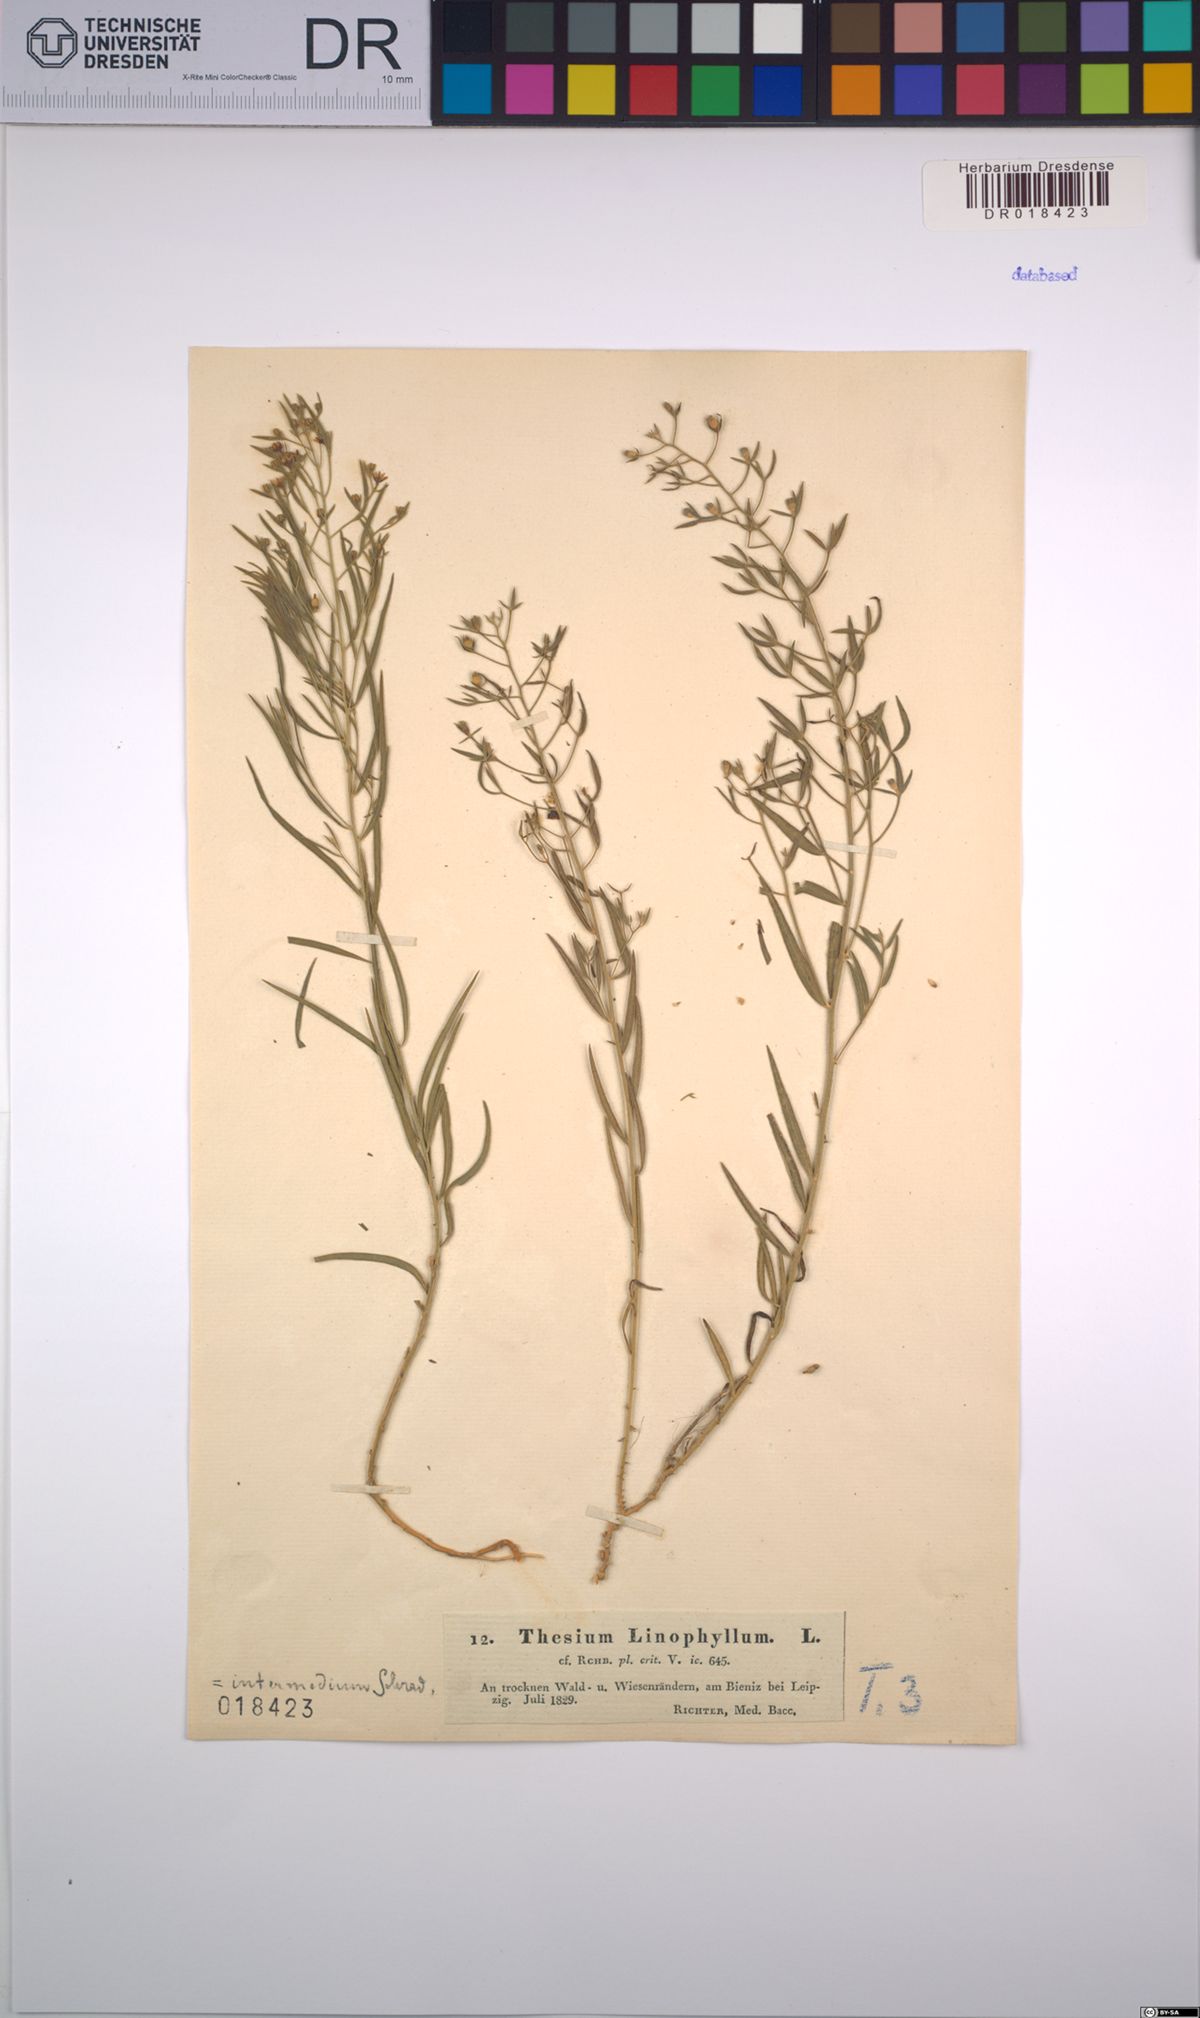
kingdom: Plantae
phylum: Tracheophyta
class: Magnoliopsida
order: Santalales
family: Thesiaceae
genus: Thesium
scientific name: Thesium linophyllon
